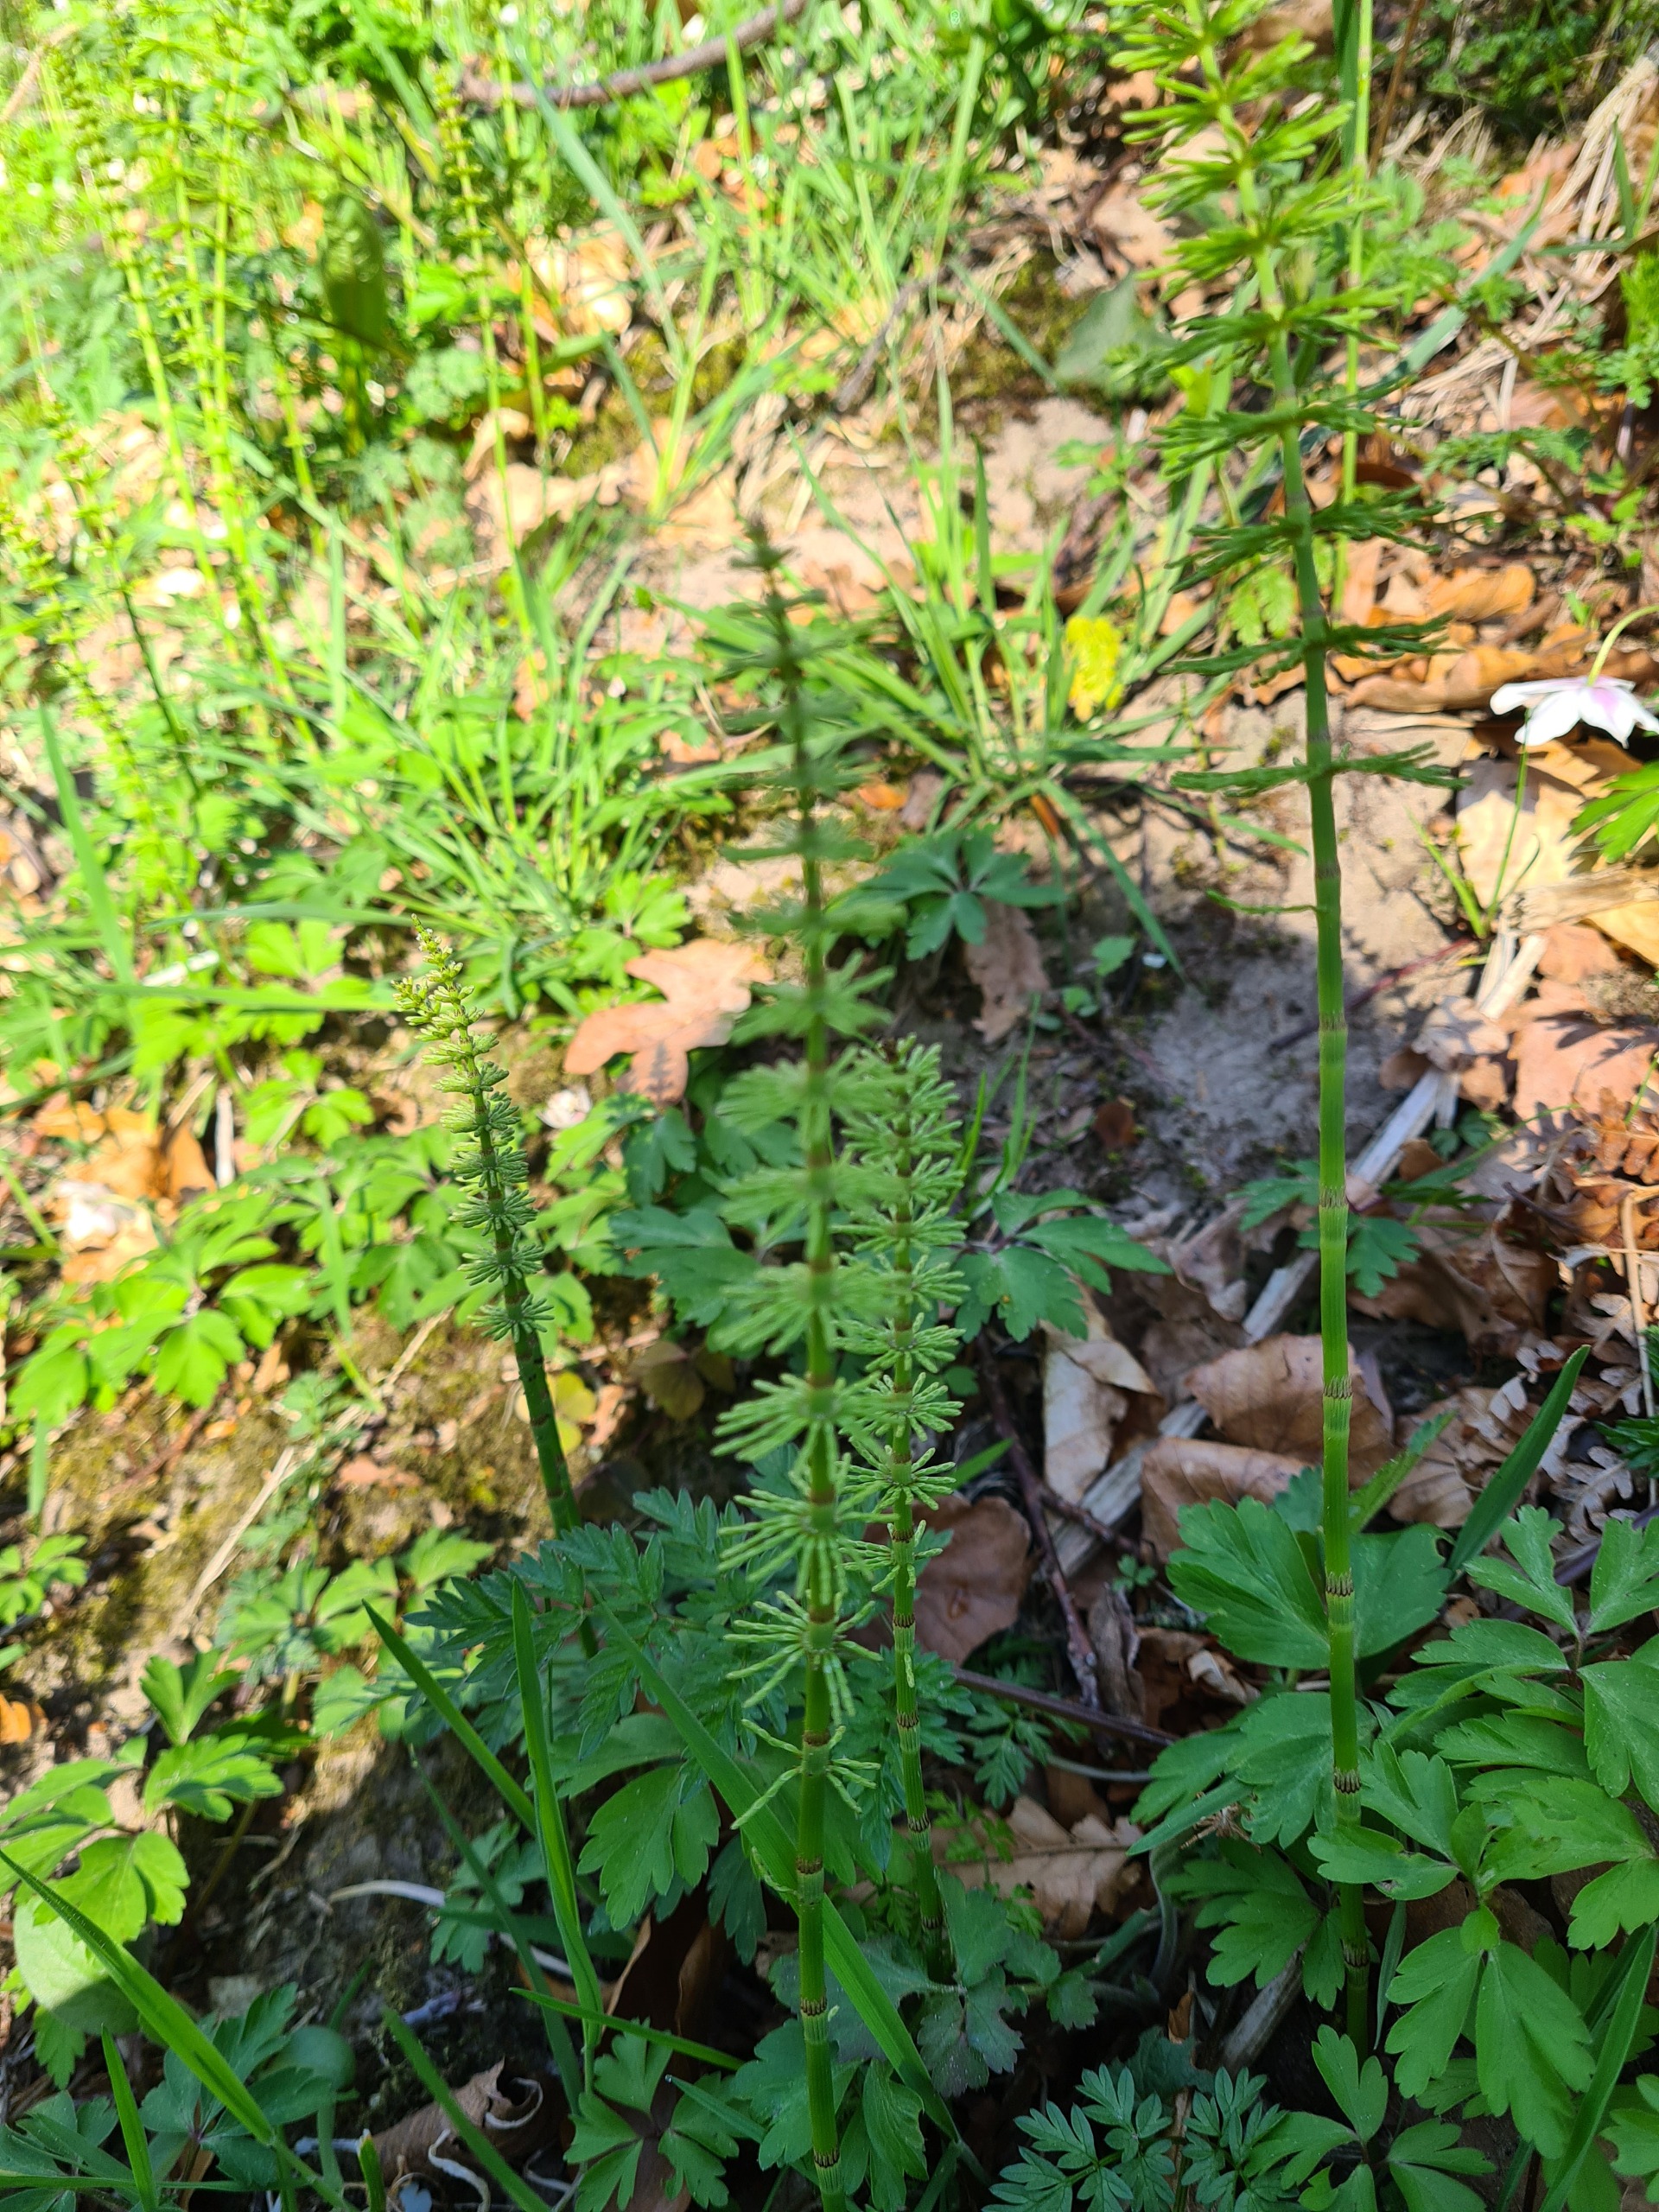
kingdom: Plantae
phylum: Tracheophyta
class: Polypodiopsida
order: Equisetales
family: Equisetaceae
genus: Equisetum
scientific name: Equisetum pratense
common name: Lund-padderok
